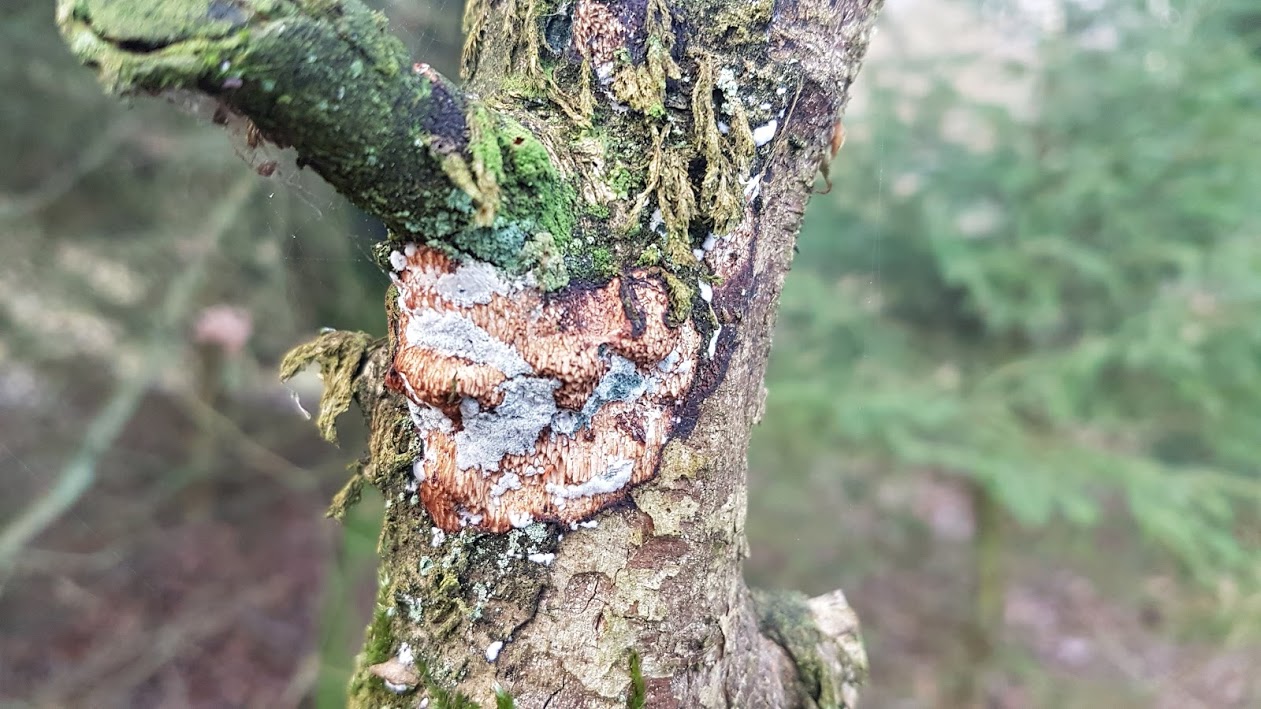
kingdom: Fungi
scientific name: Fungi
